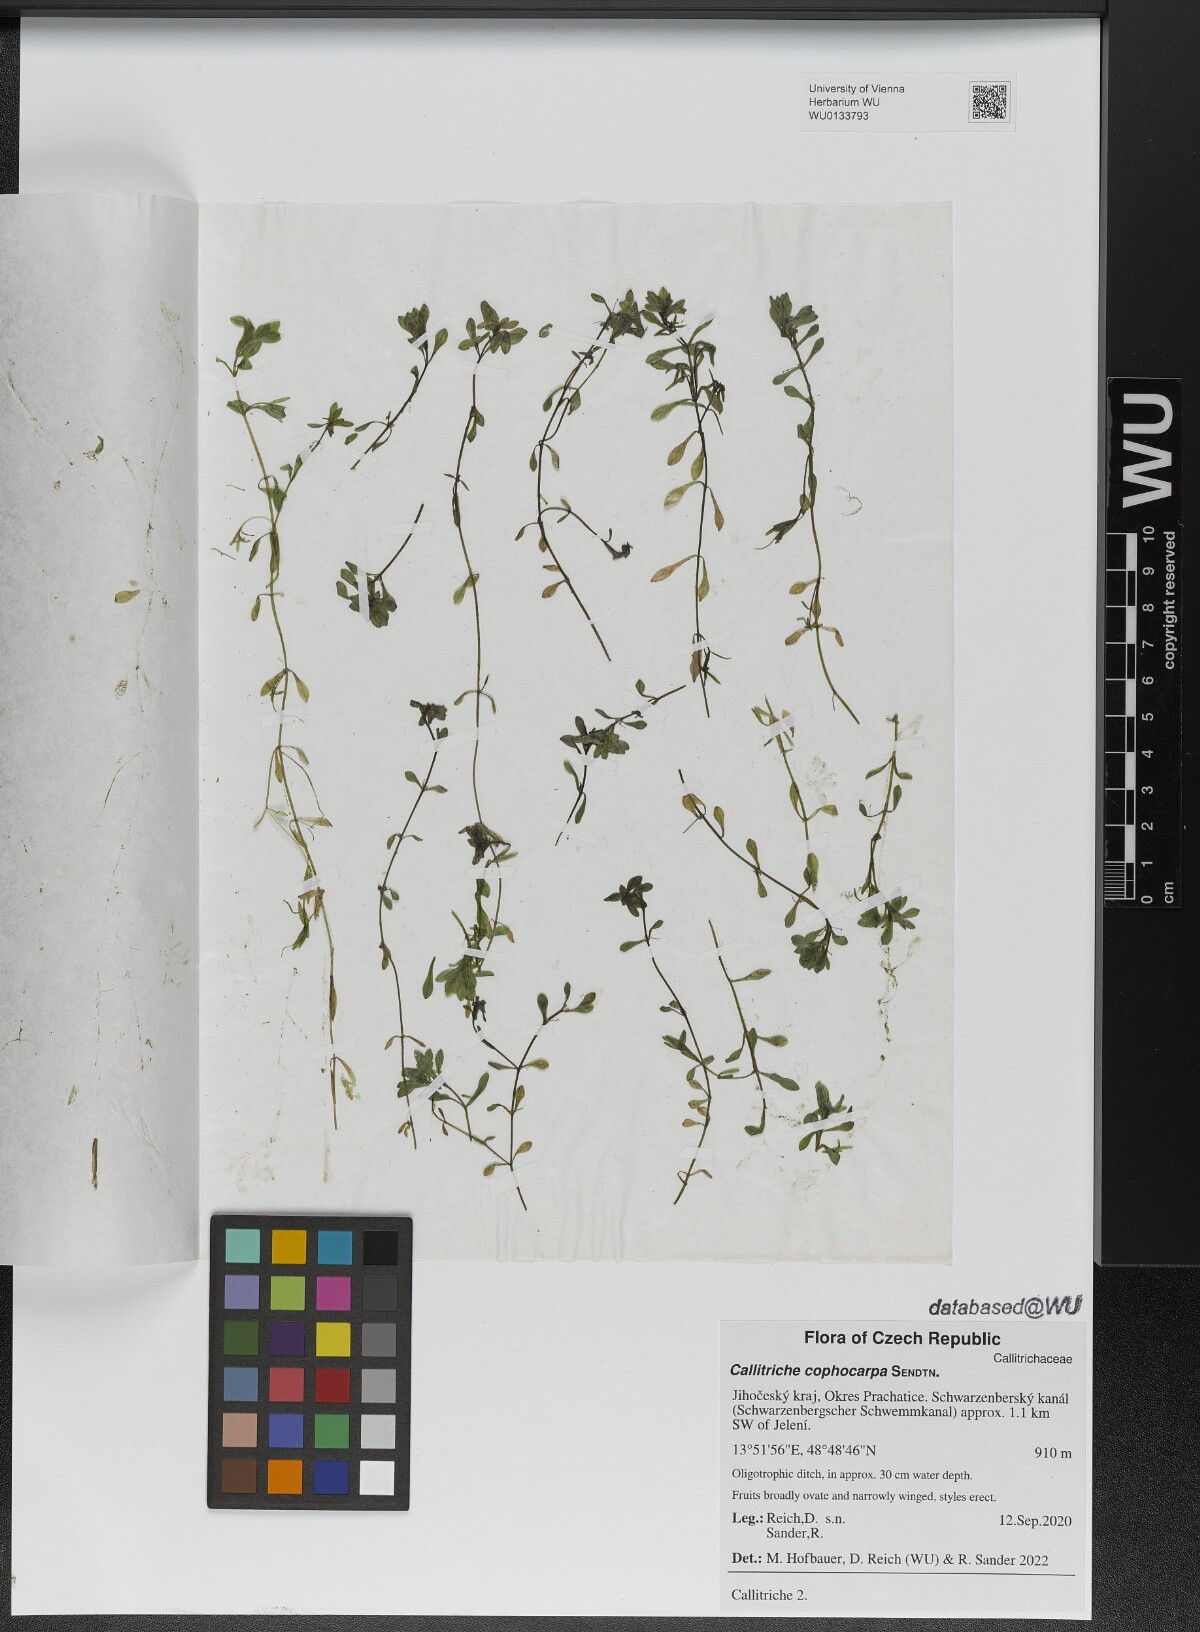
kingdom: Plantae
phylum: Tracheophyta
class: Magnoliopsida
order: Lamiales
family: Plantaginaceae
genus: Callitriche
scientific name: Callitriche cophocarpa
